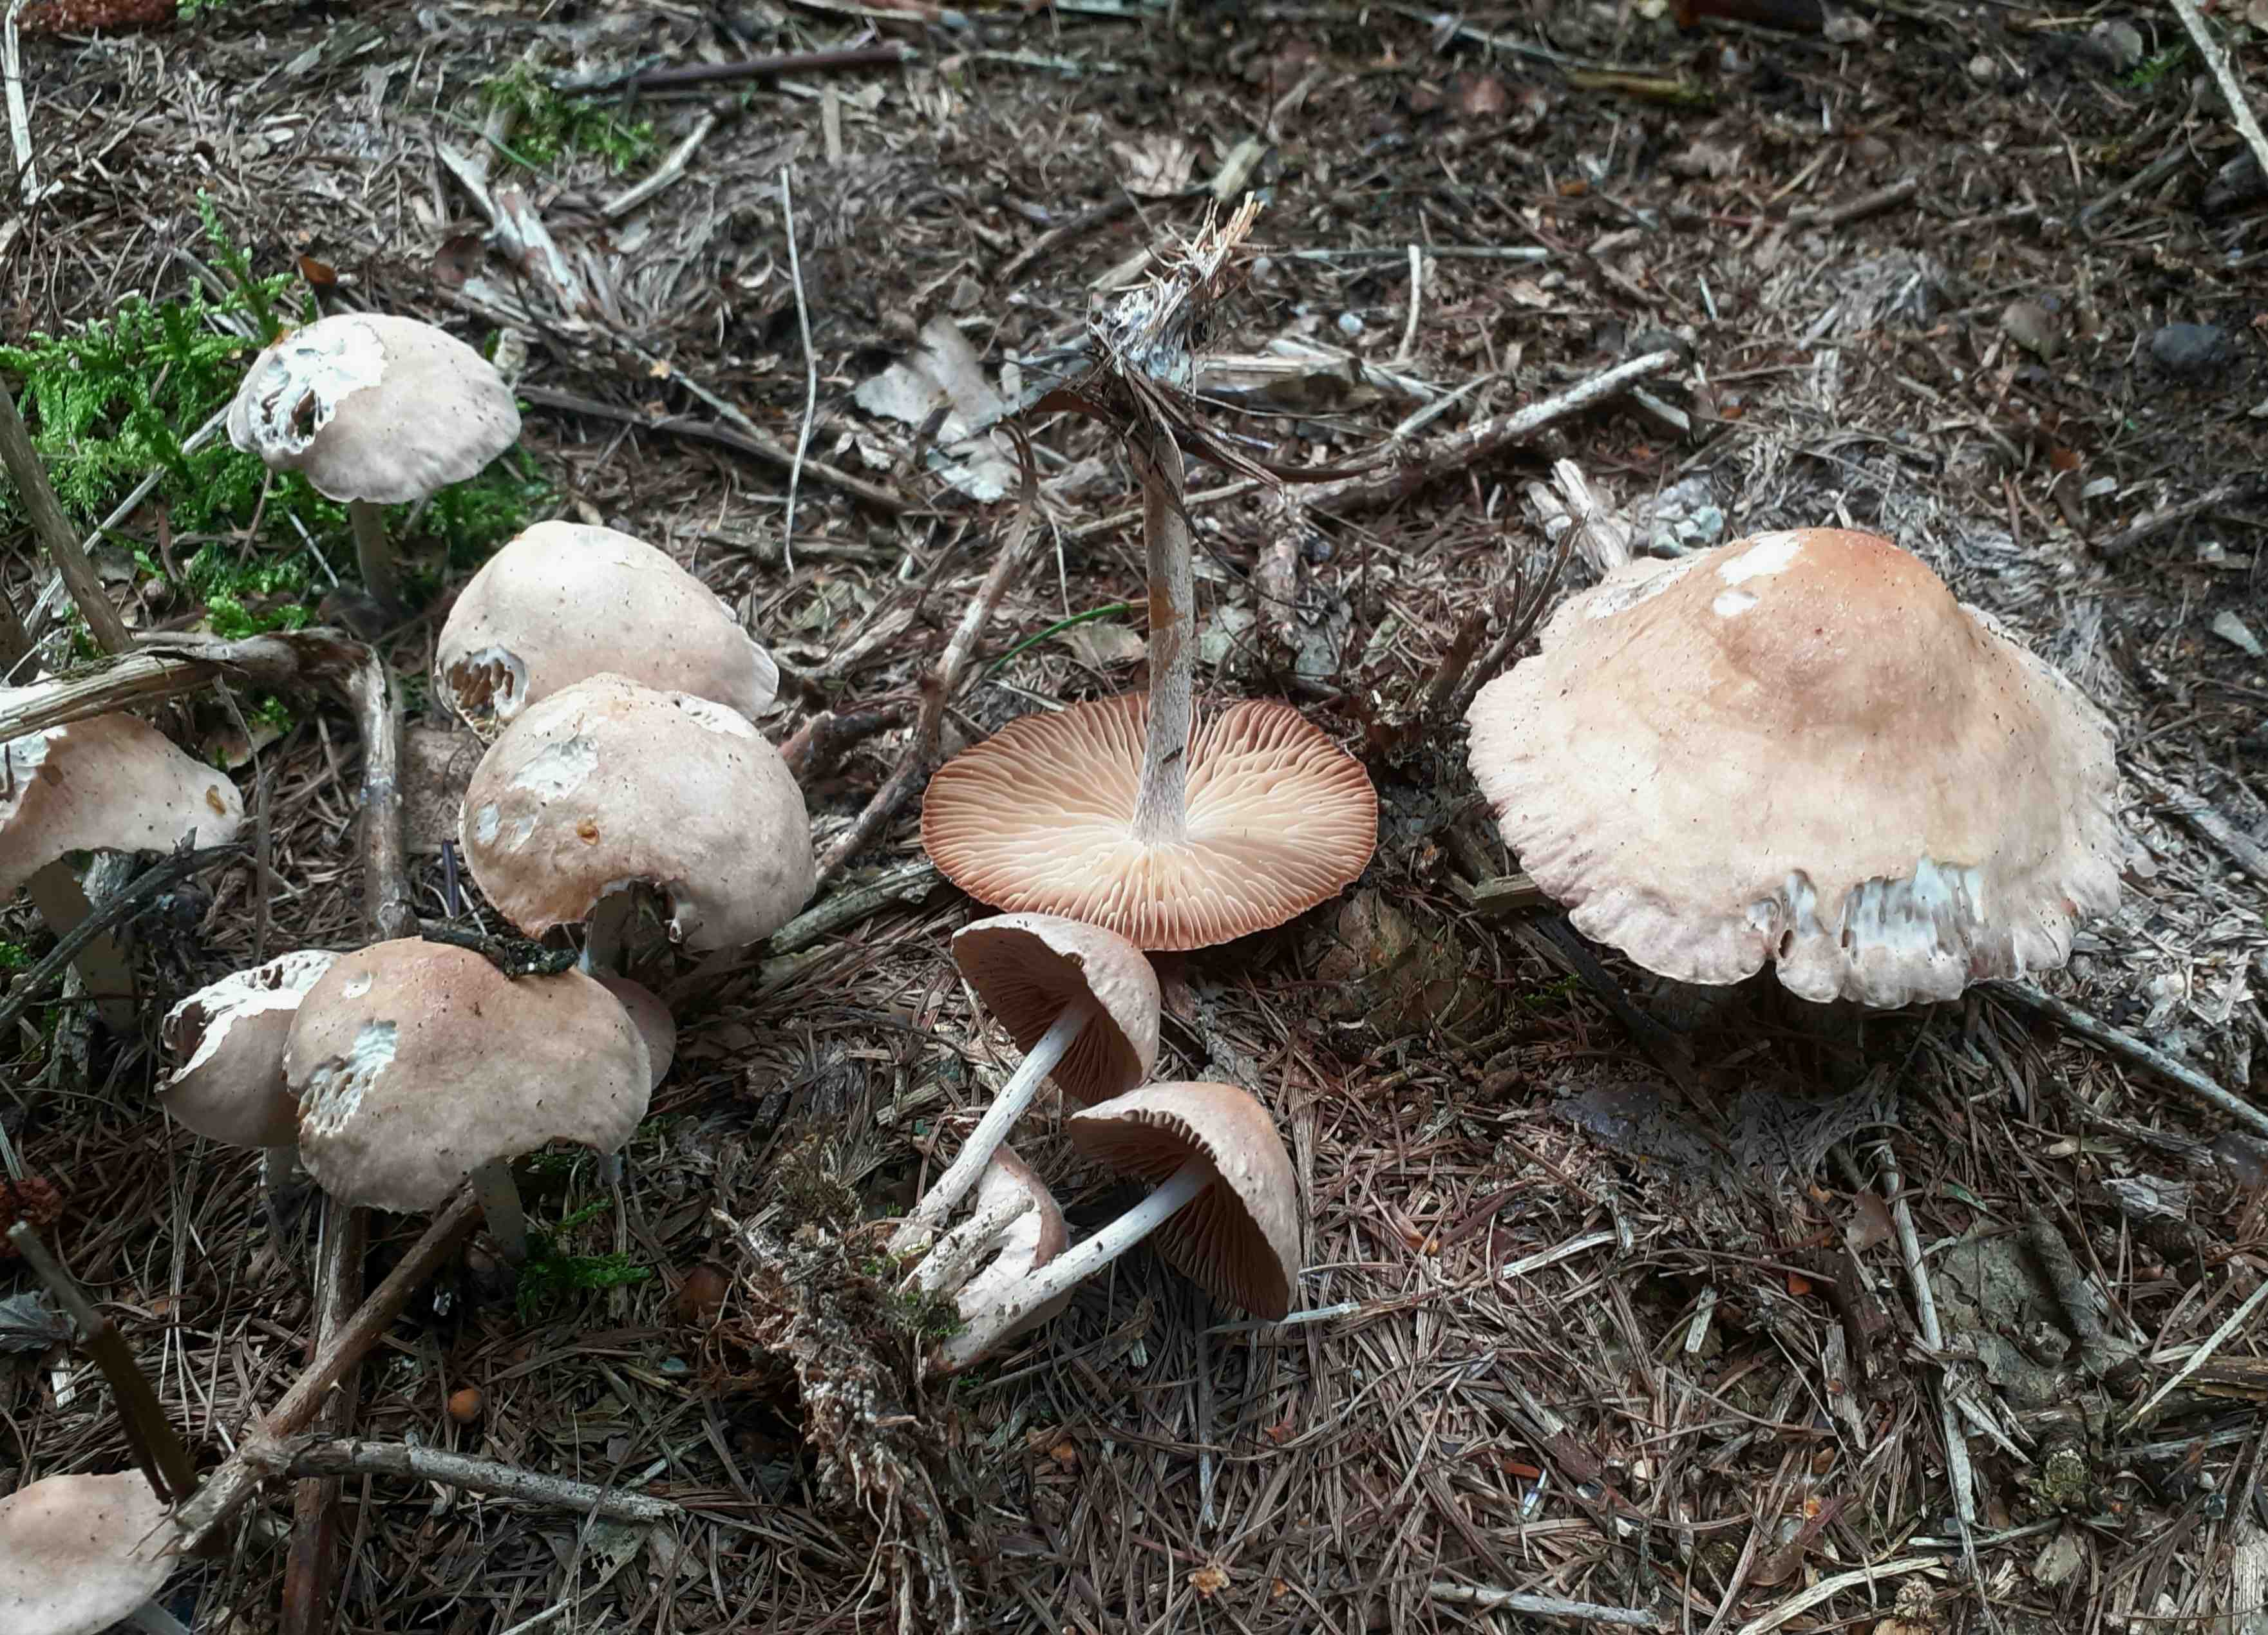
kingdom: Fungi
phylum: Basidiomycota
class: Agaricomycetes
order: Agaricales
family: Omphalotaceae
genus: Collybiopsis
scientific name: Collybiopsis peronata
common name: bestøvlet fladhat
